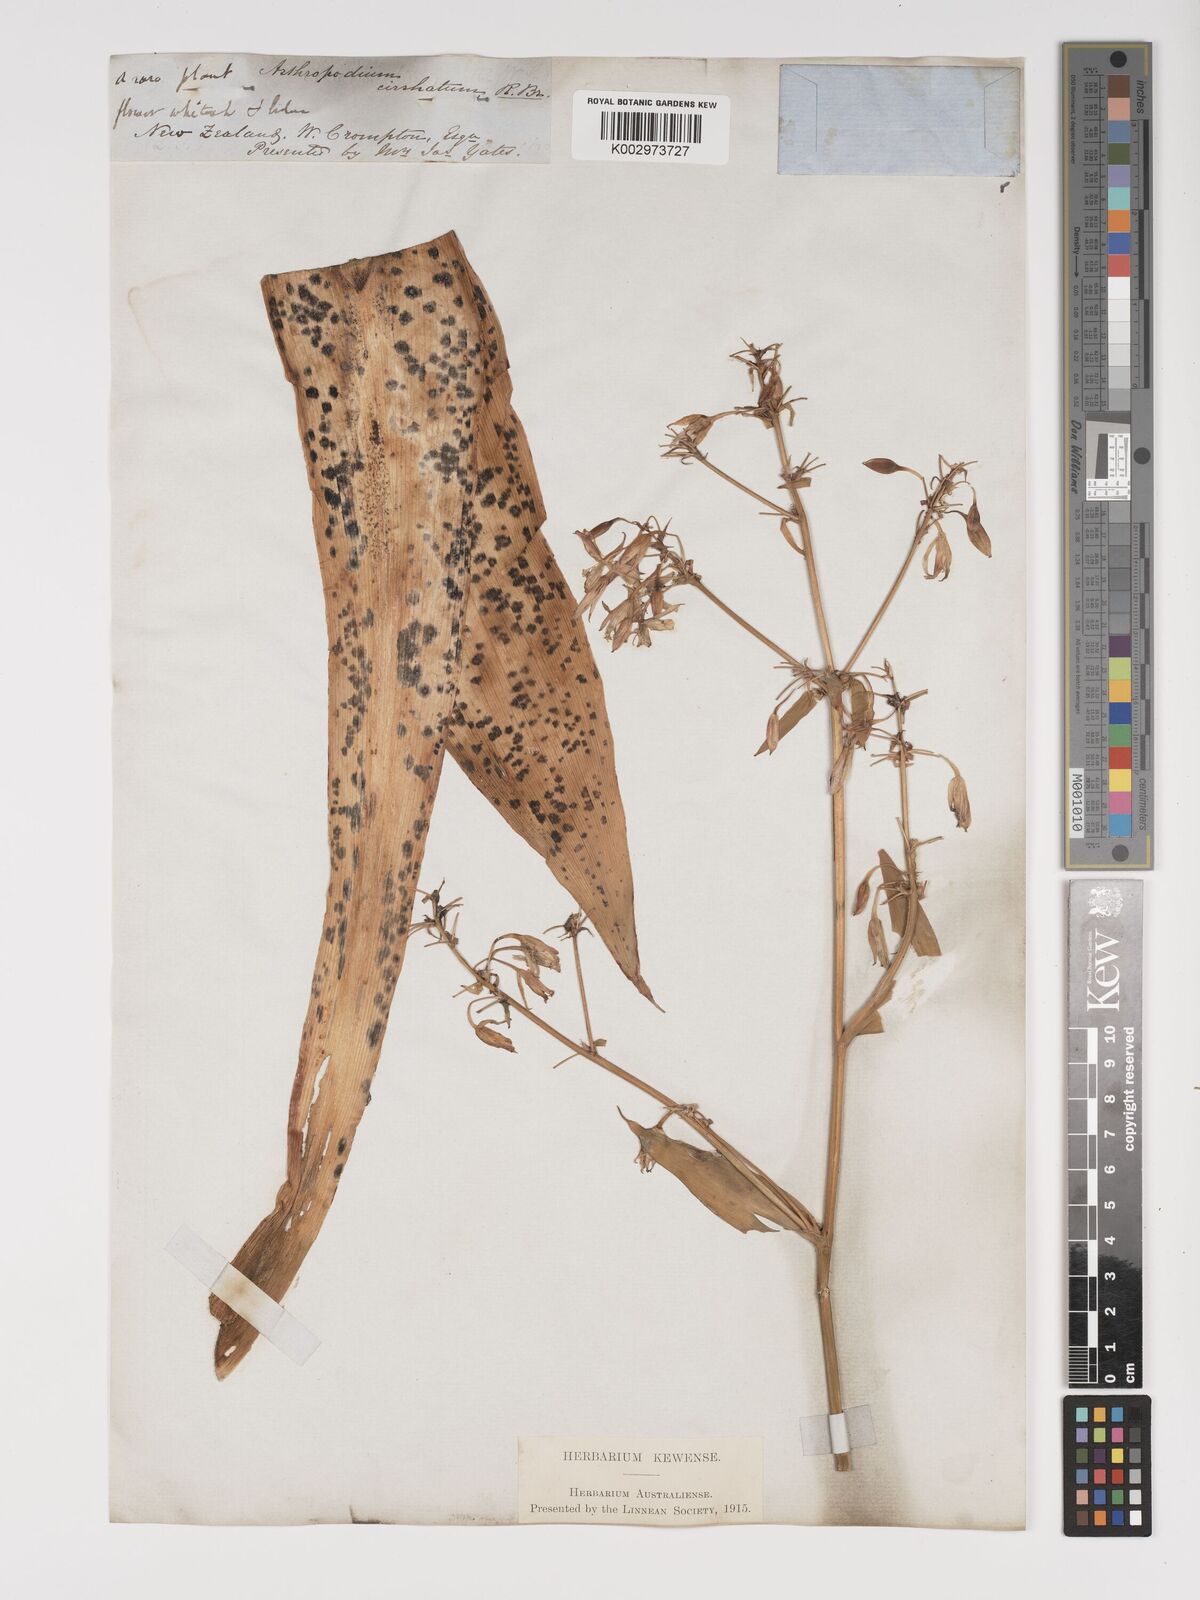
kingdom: Plantae
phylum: Tracheophyta
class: Liliopsida
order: Asparagales
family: Asparagaceae
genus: Arthropodium
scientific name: Arthropodium
